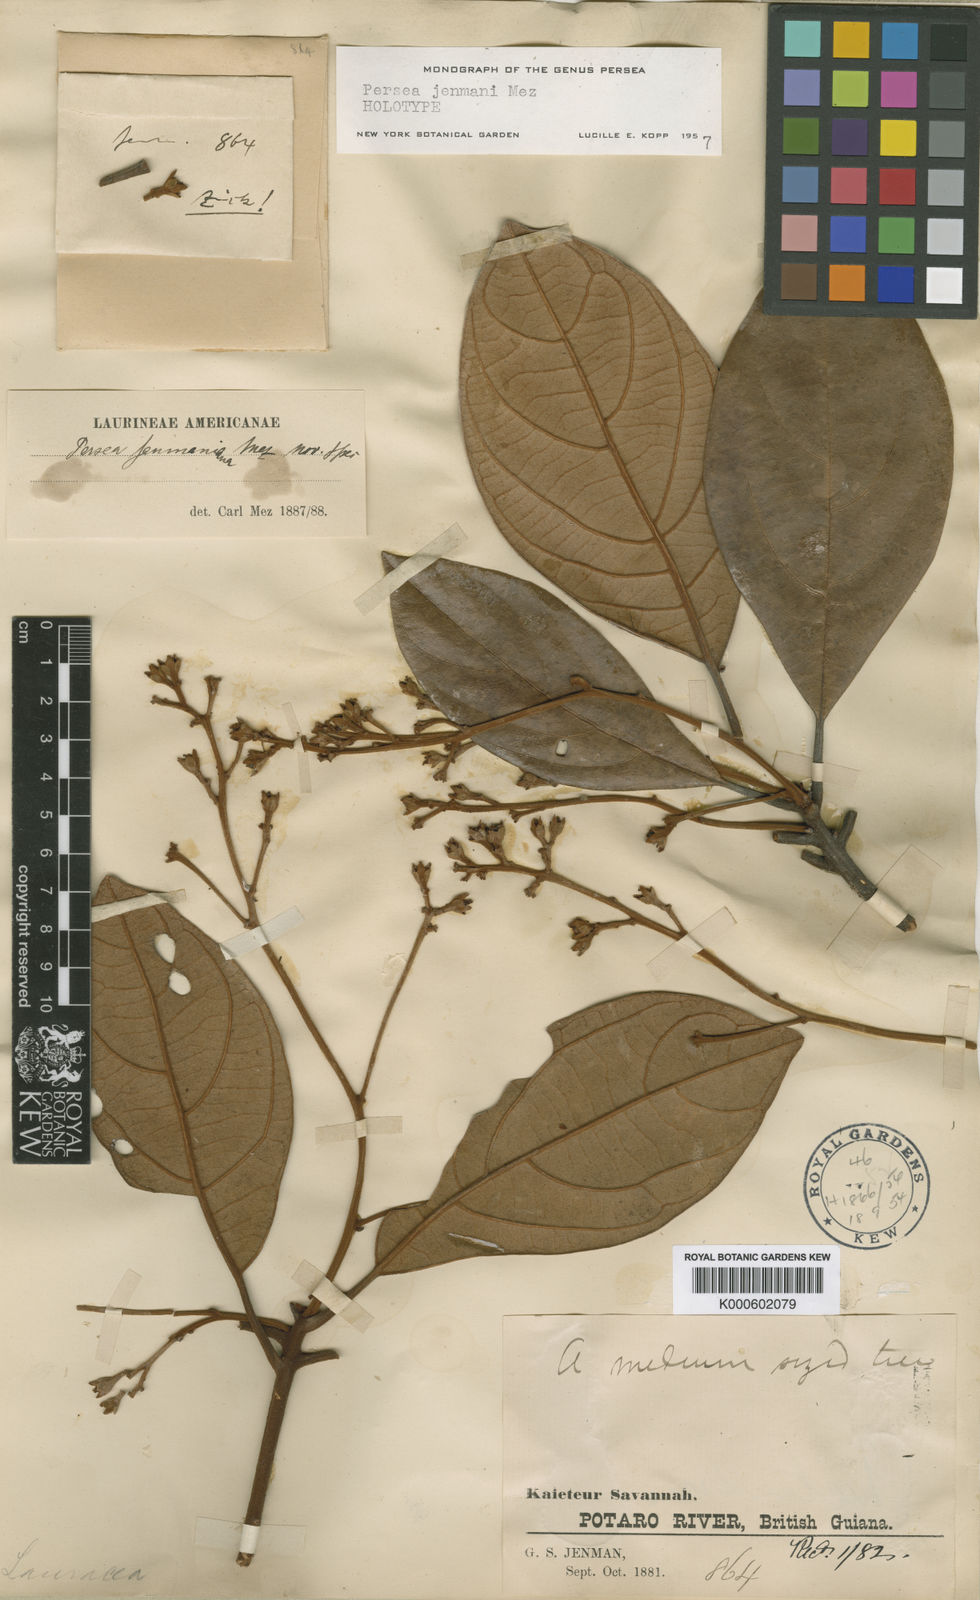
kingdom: Plantae
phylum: Tracheophyta
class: Magnoliopsida
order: Laurales
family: Lauraceae
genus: Persea
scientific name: Persea jenmanii
